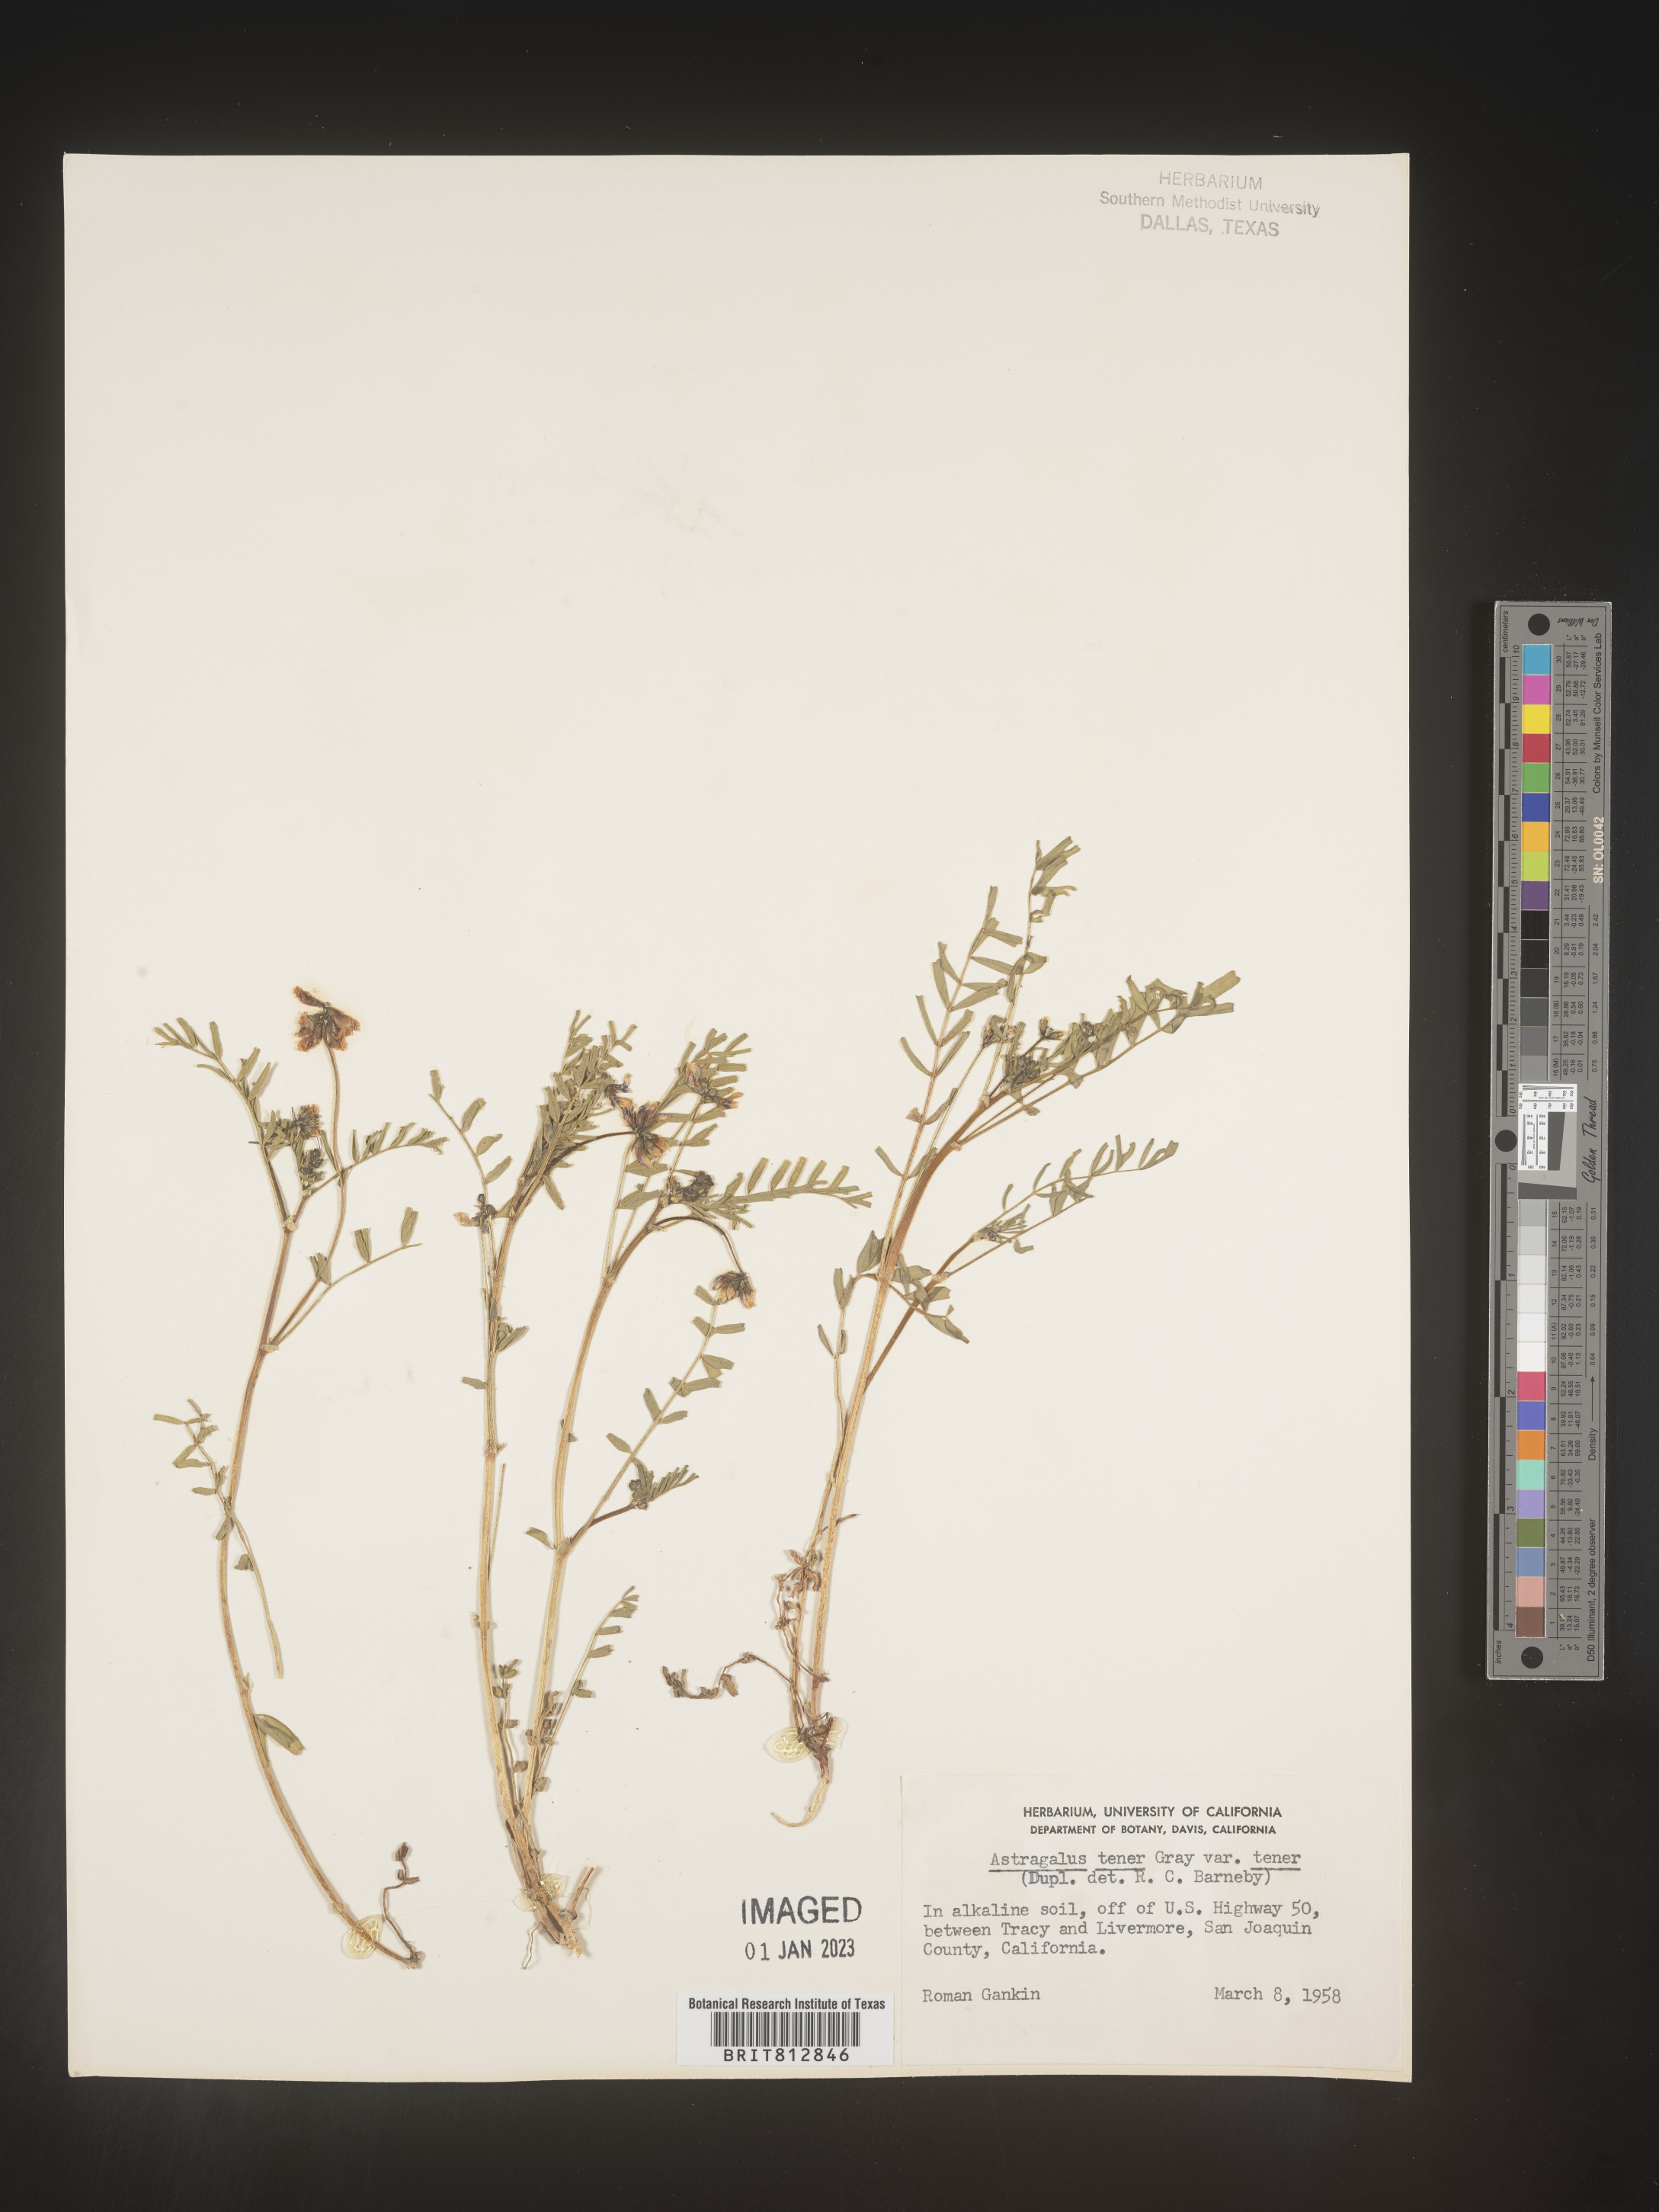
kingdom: Plantae
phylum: Tracheophyta
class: Magnoliopsida
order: Fabales
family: Fabaceae
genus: Astragalus
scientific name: Astragalus
